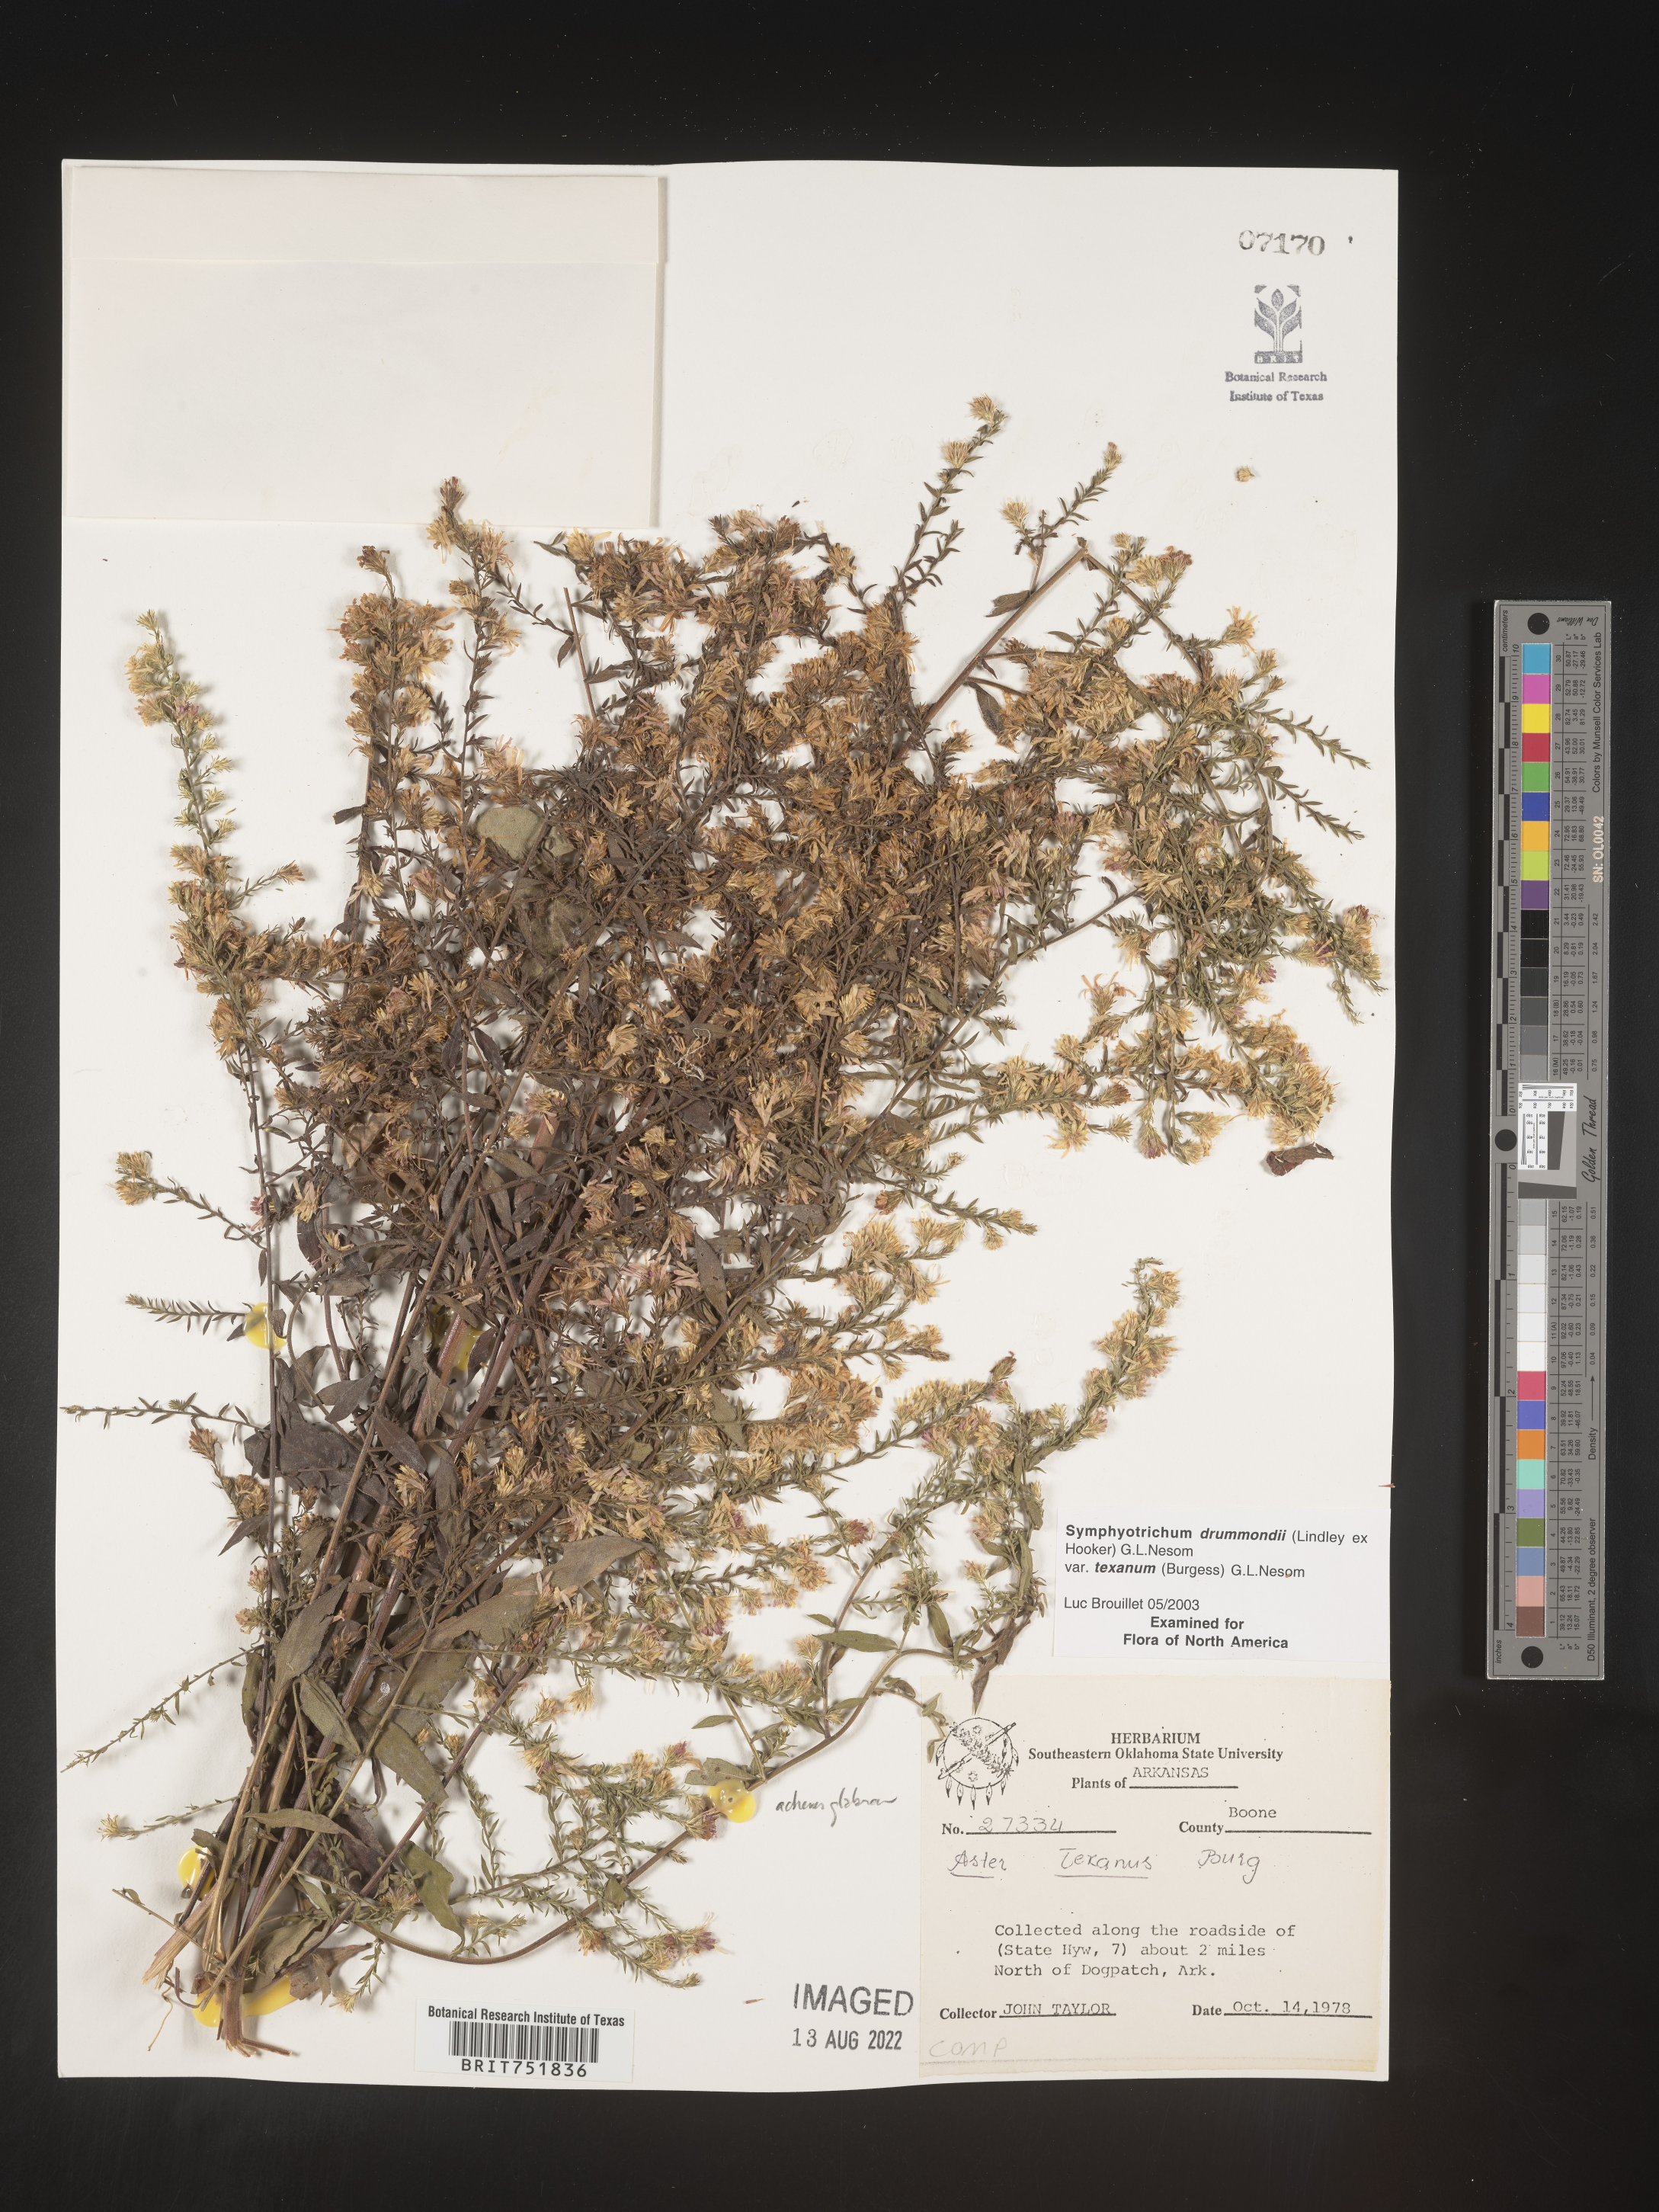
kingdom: Plantae
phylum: Tracheophyta
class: Magnoliopsida
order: Asterales
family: Asteraceae
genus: Symphyotrichum
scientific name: Symphyotrichum drummondii
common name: Drummond's aster
